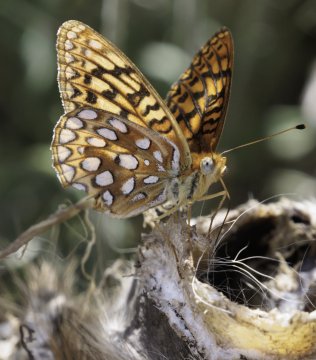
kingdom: Animalia
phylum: Arthropoda
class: Insecta
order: Lepidoptera
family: Nymphalidae
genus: Speyeria
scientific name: Speyeria
